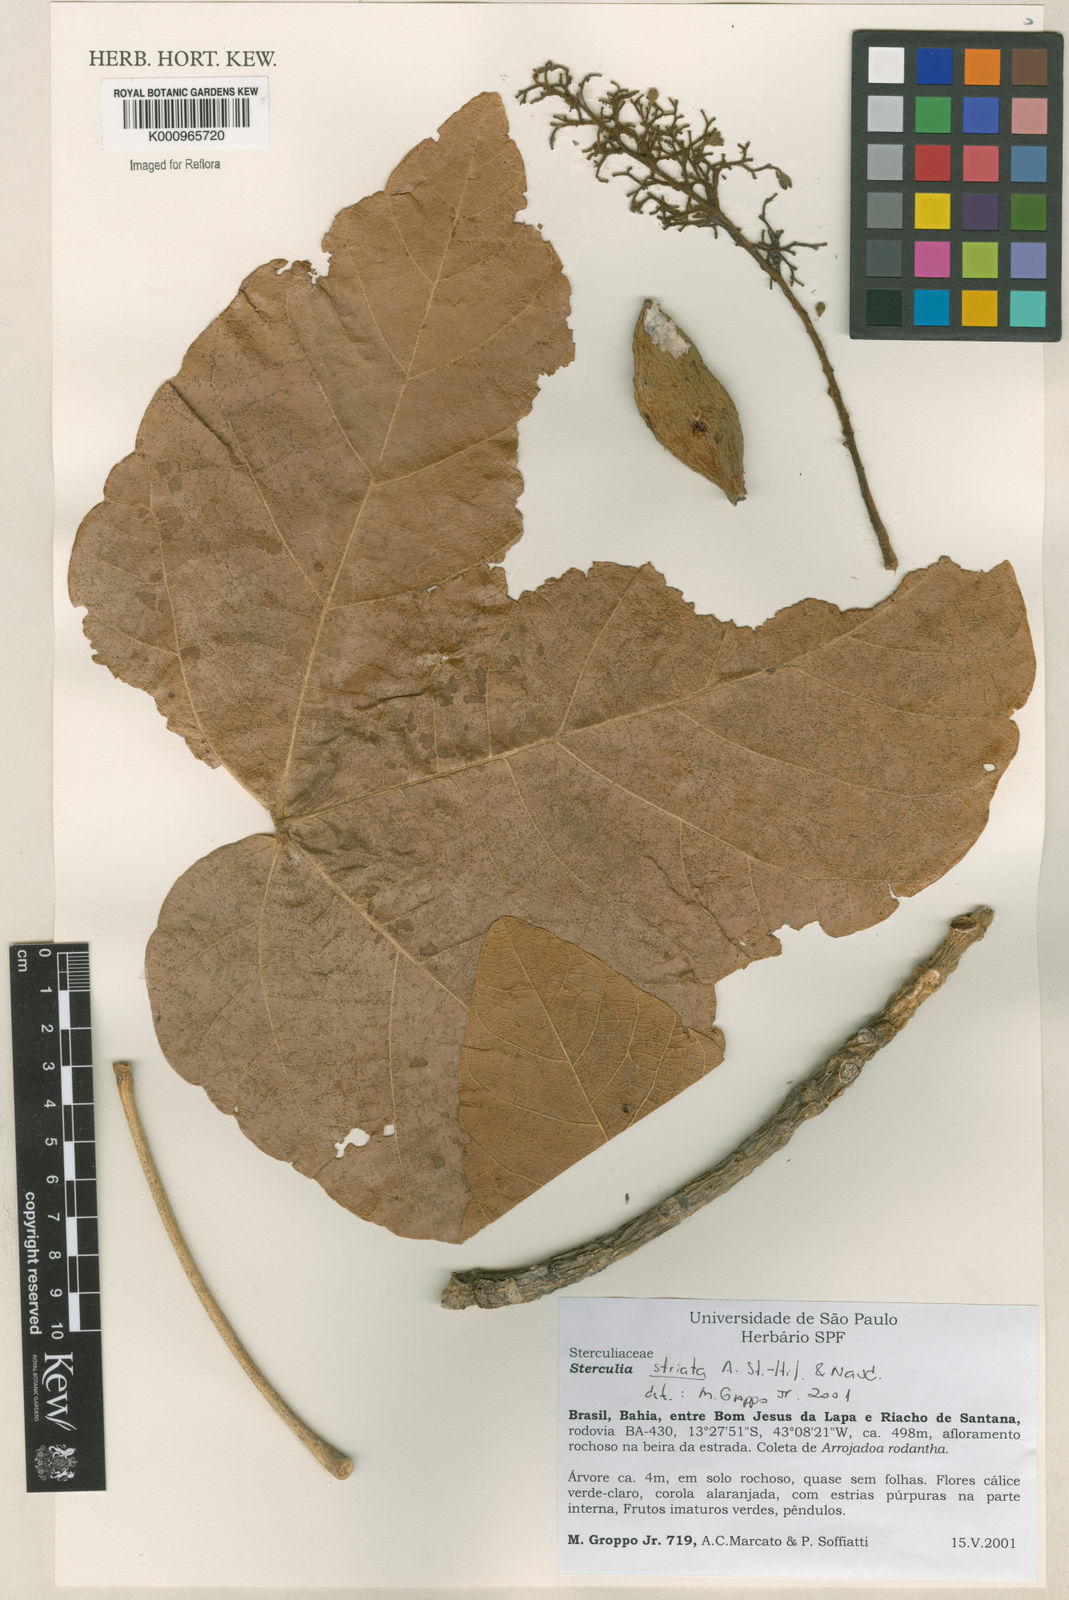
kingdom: Plantae
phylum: Tracheophyta
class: Magnoliopsida
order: Malvales
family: Malvaceae
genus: Sterculia
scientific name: Sterculia striata
